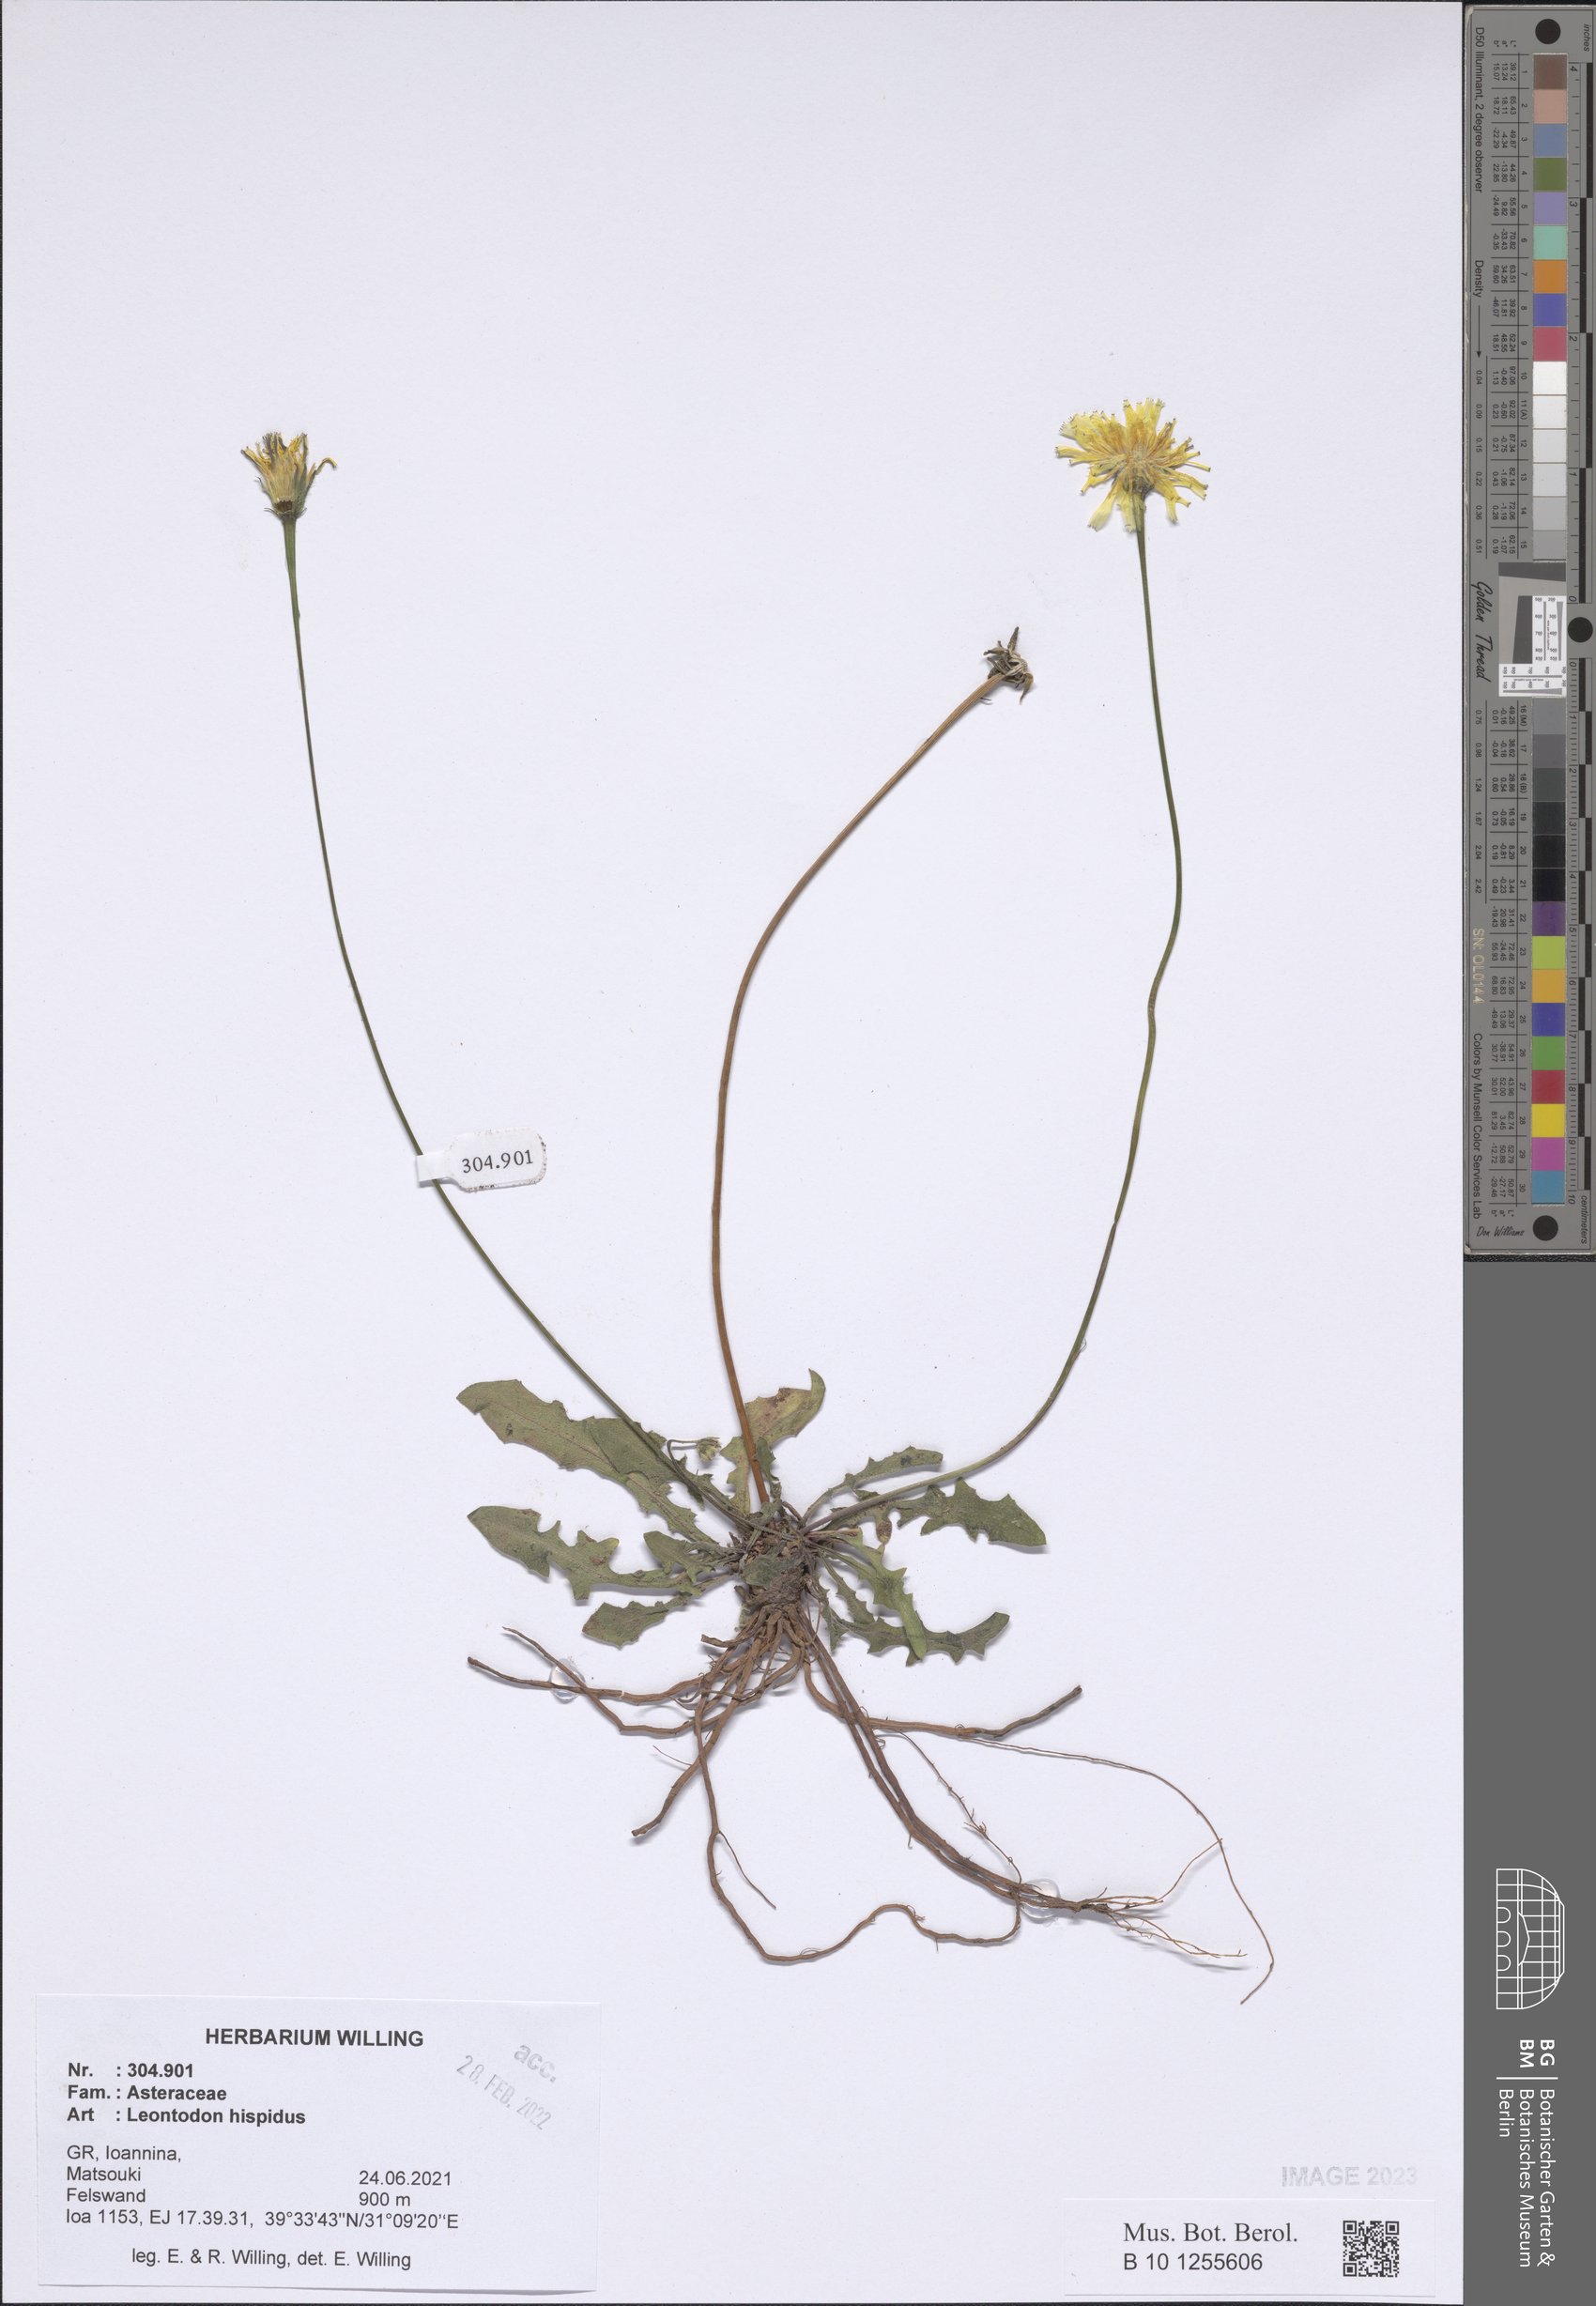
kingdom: Plantae
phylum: Tracheophyta
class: Magnoliopsida
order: Asterales
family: Asteraceae
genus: Leontodon
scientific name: Leontodon hispidus
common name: Rough hawkbit
